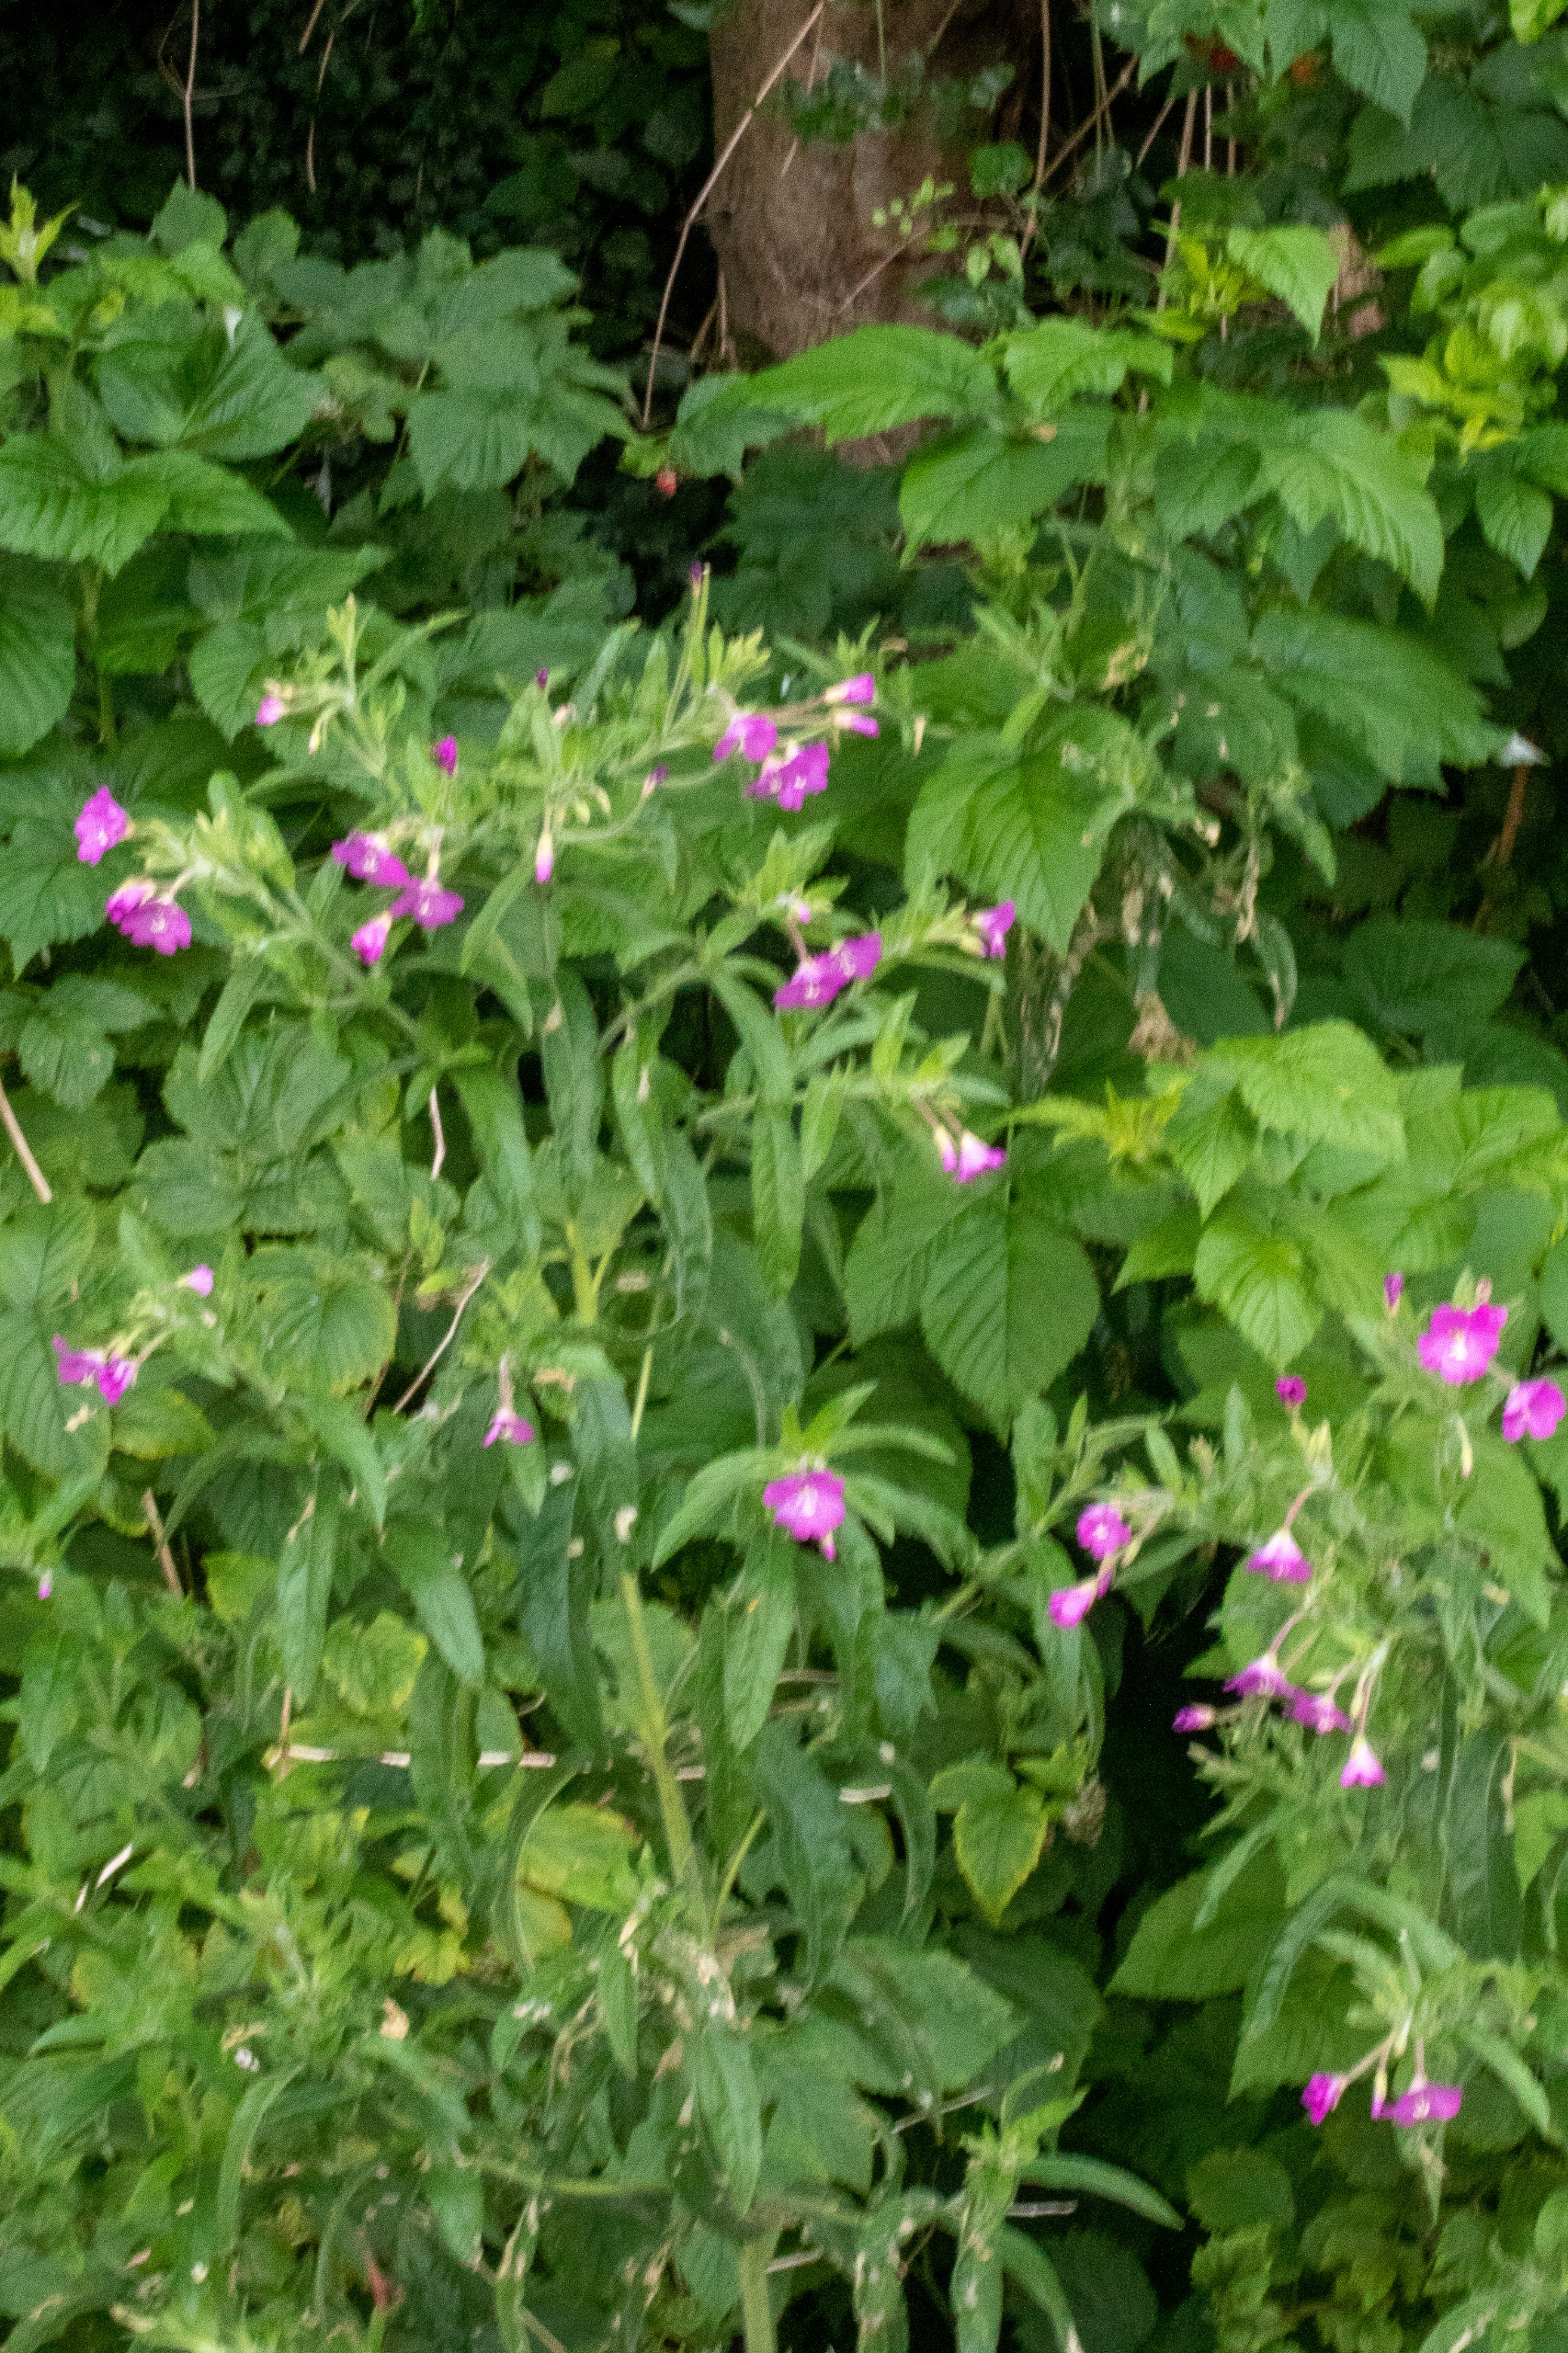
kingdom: Plantae
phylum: Tracheophyta
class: Magnoliopsida
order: Myrtales
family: Onagraceae
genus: Epilobium
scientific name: Epilobium hirsutum
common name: Lådden dueurt
